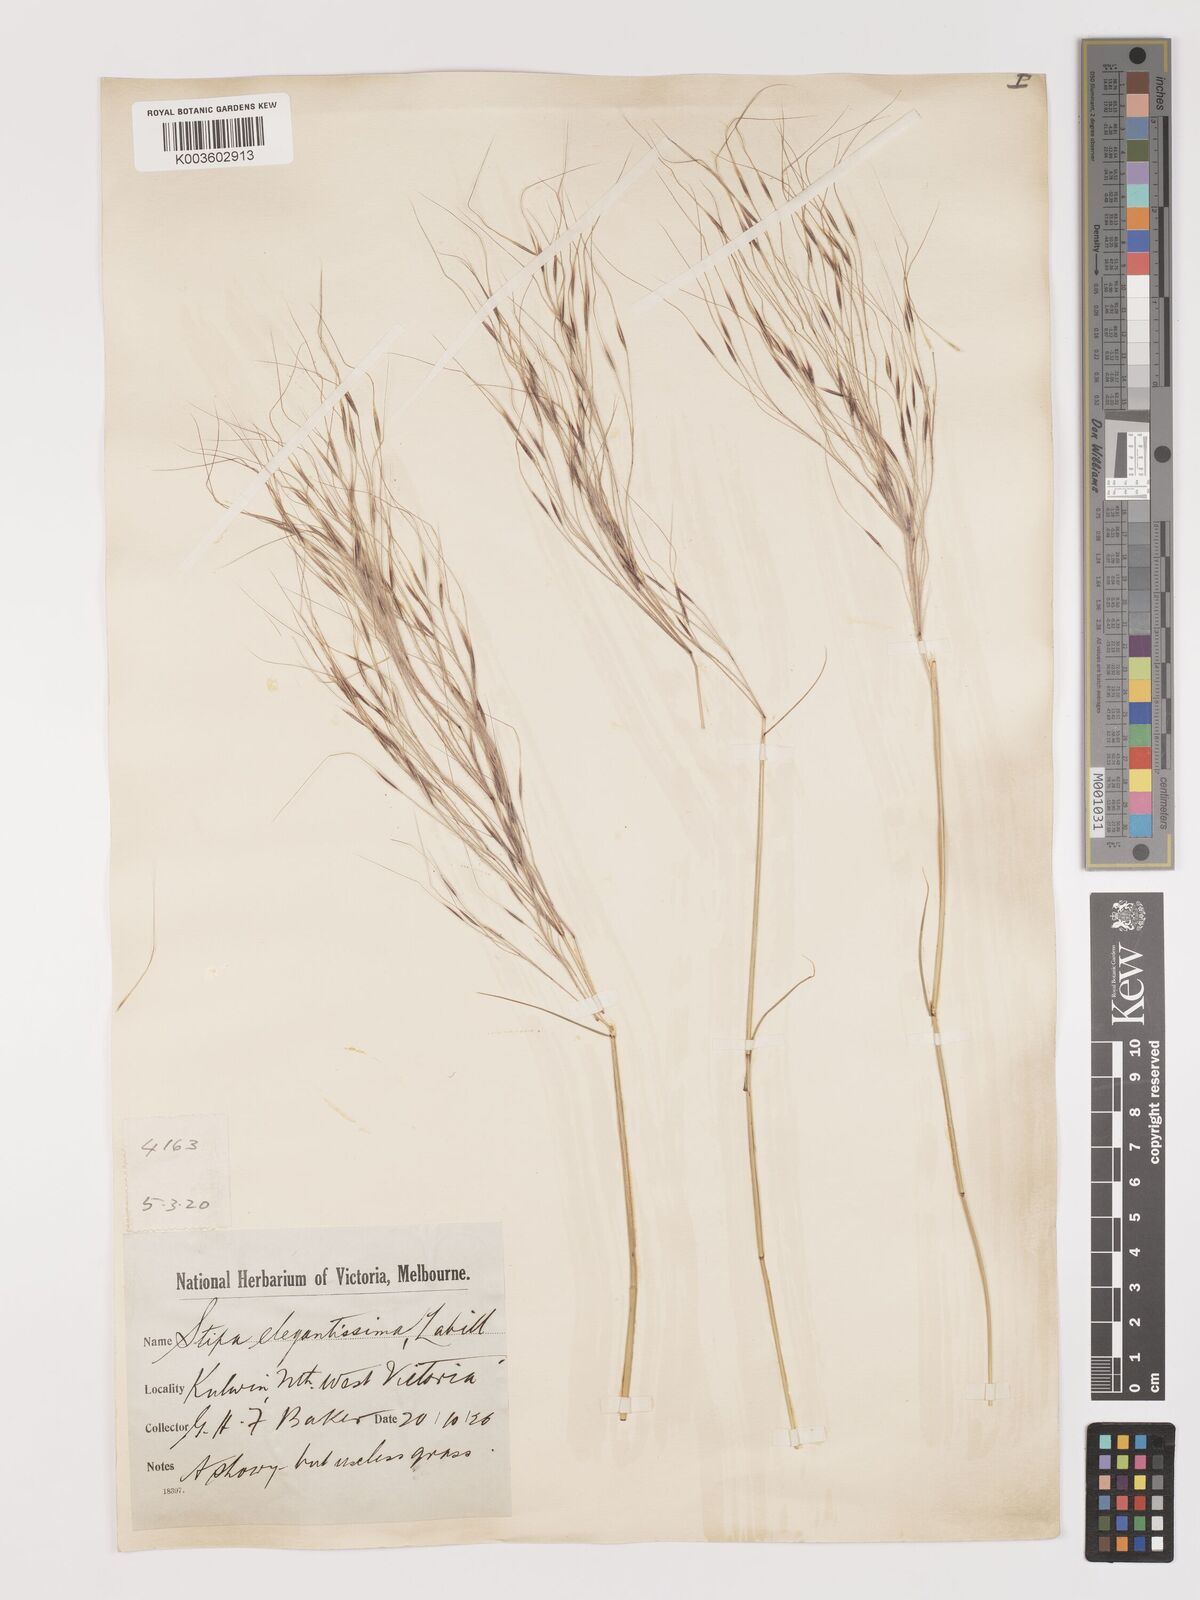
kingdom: Plantae
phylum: Tracheophyta
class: Liliopsida
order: Poales
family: Poaceae
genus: Austrostipa
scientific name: Austrostipa elegantissima
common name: Feather spear grass
